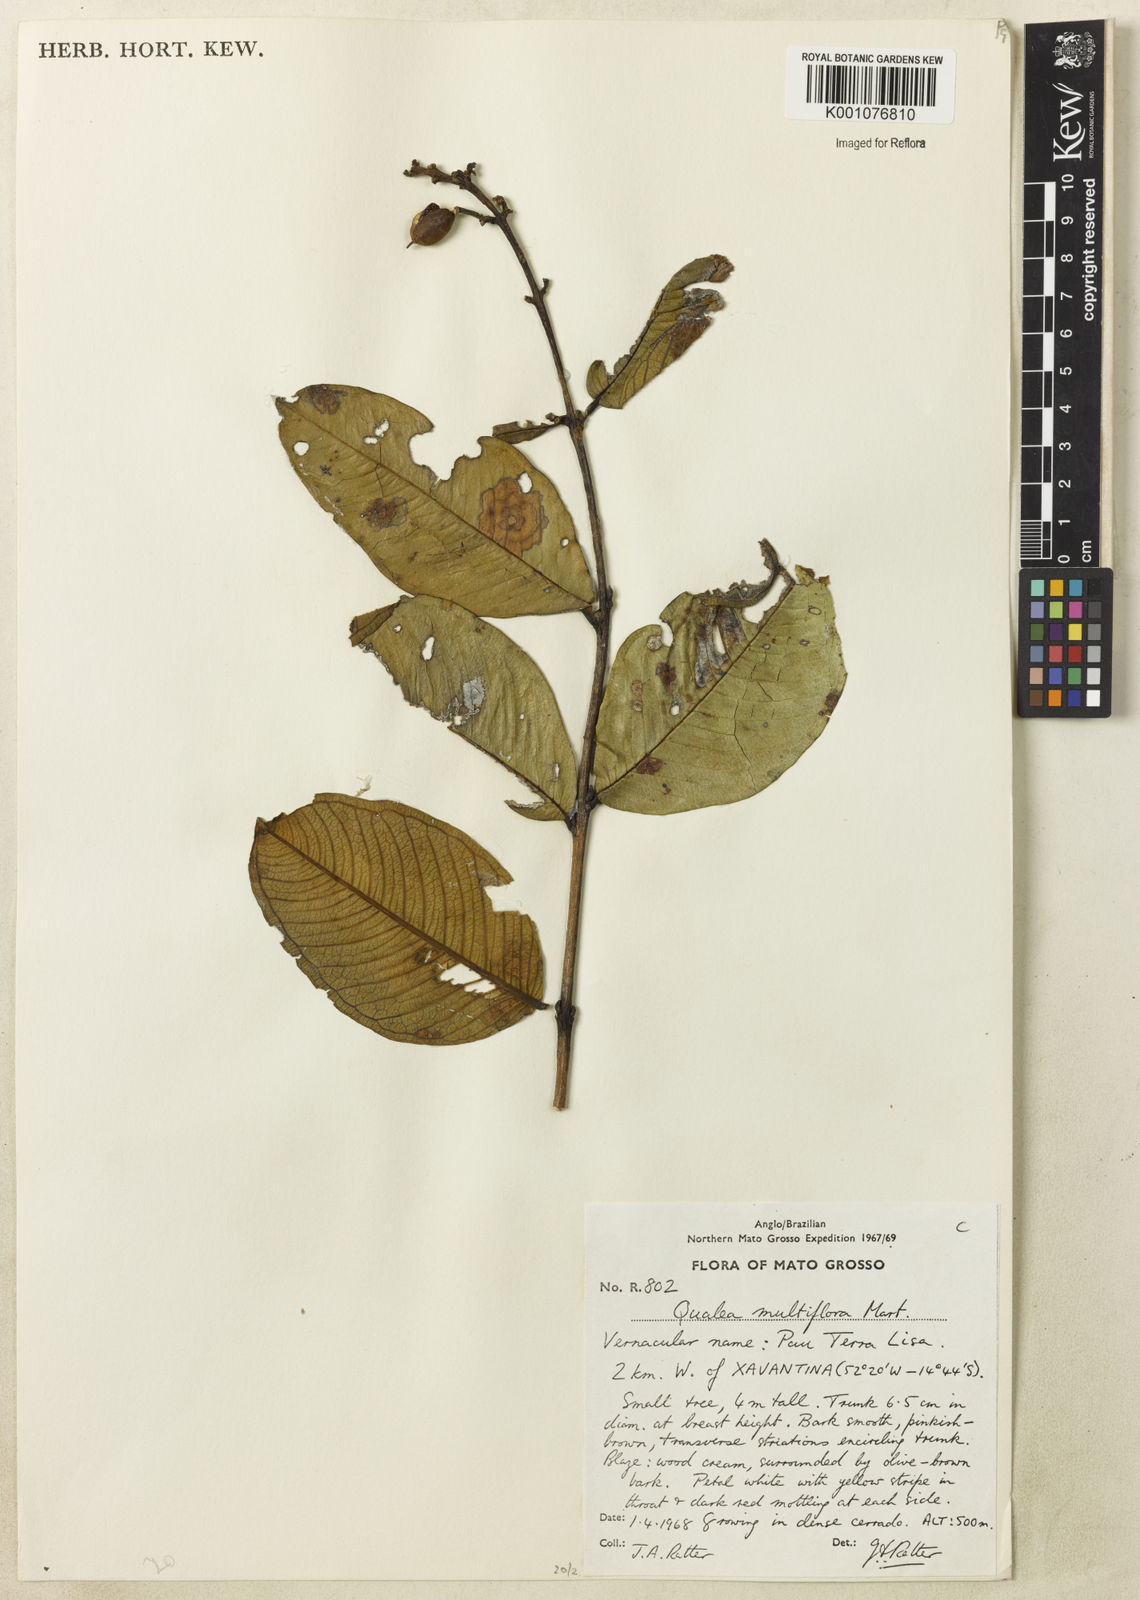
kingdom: Plantae
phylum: Tracheophyta
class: Magnoliopsida
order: Myrtales
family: Vochysiaceae
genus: Qualea
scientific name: Qualea multiflora
